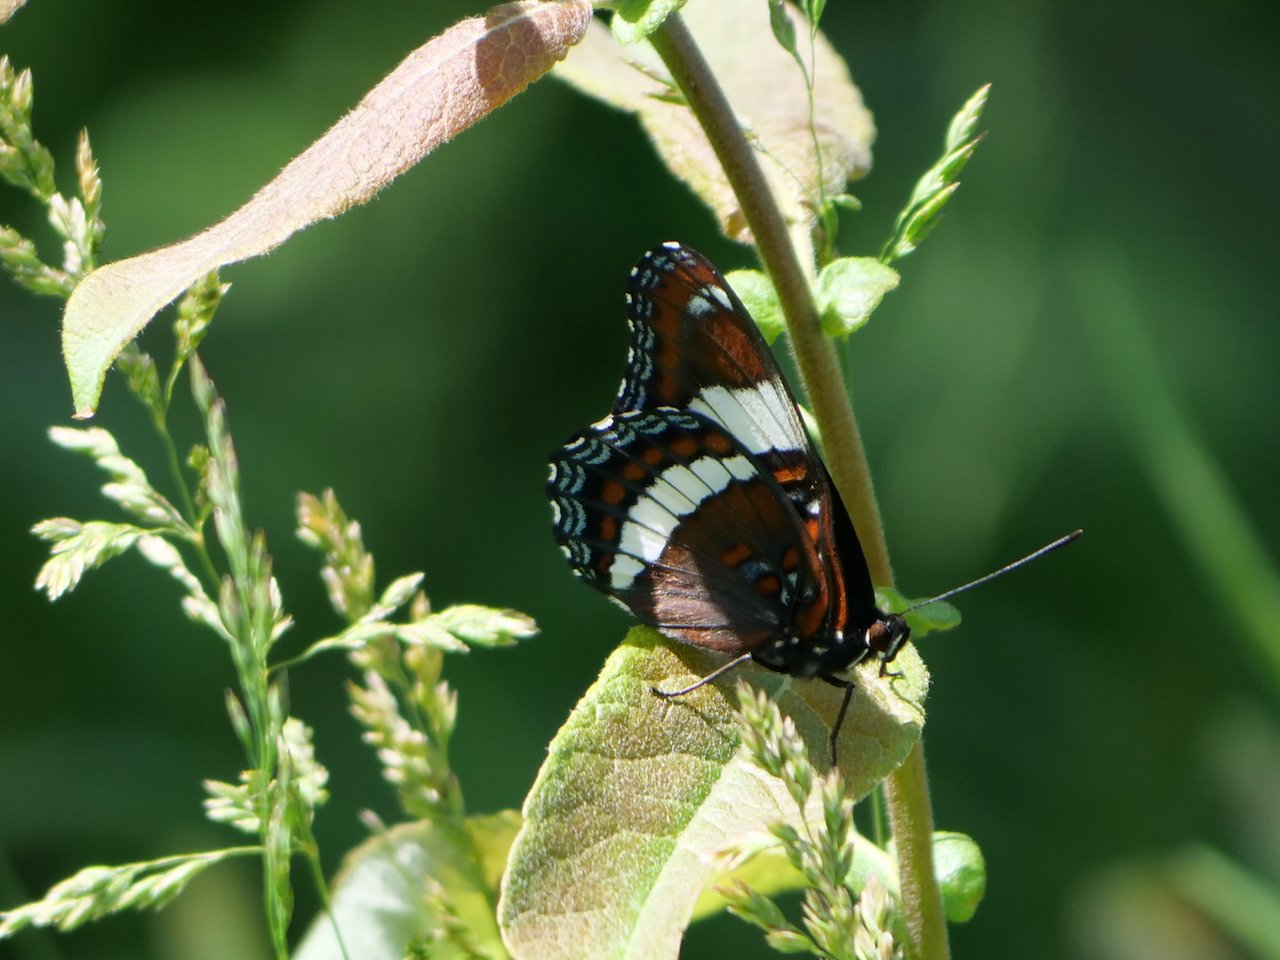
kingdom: Animalia
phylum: Arthropoda
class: Insecta
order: Lepidoptera
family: Nymphalidae
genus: Limenitis
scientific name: Limenitis arthemis
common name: Red-spotted Admiral
